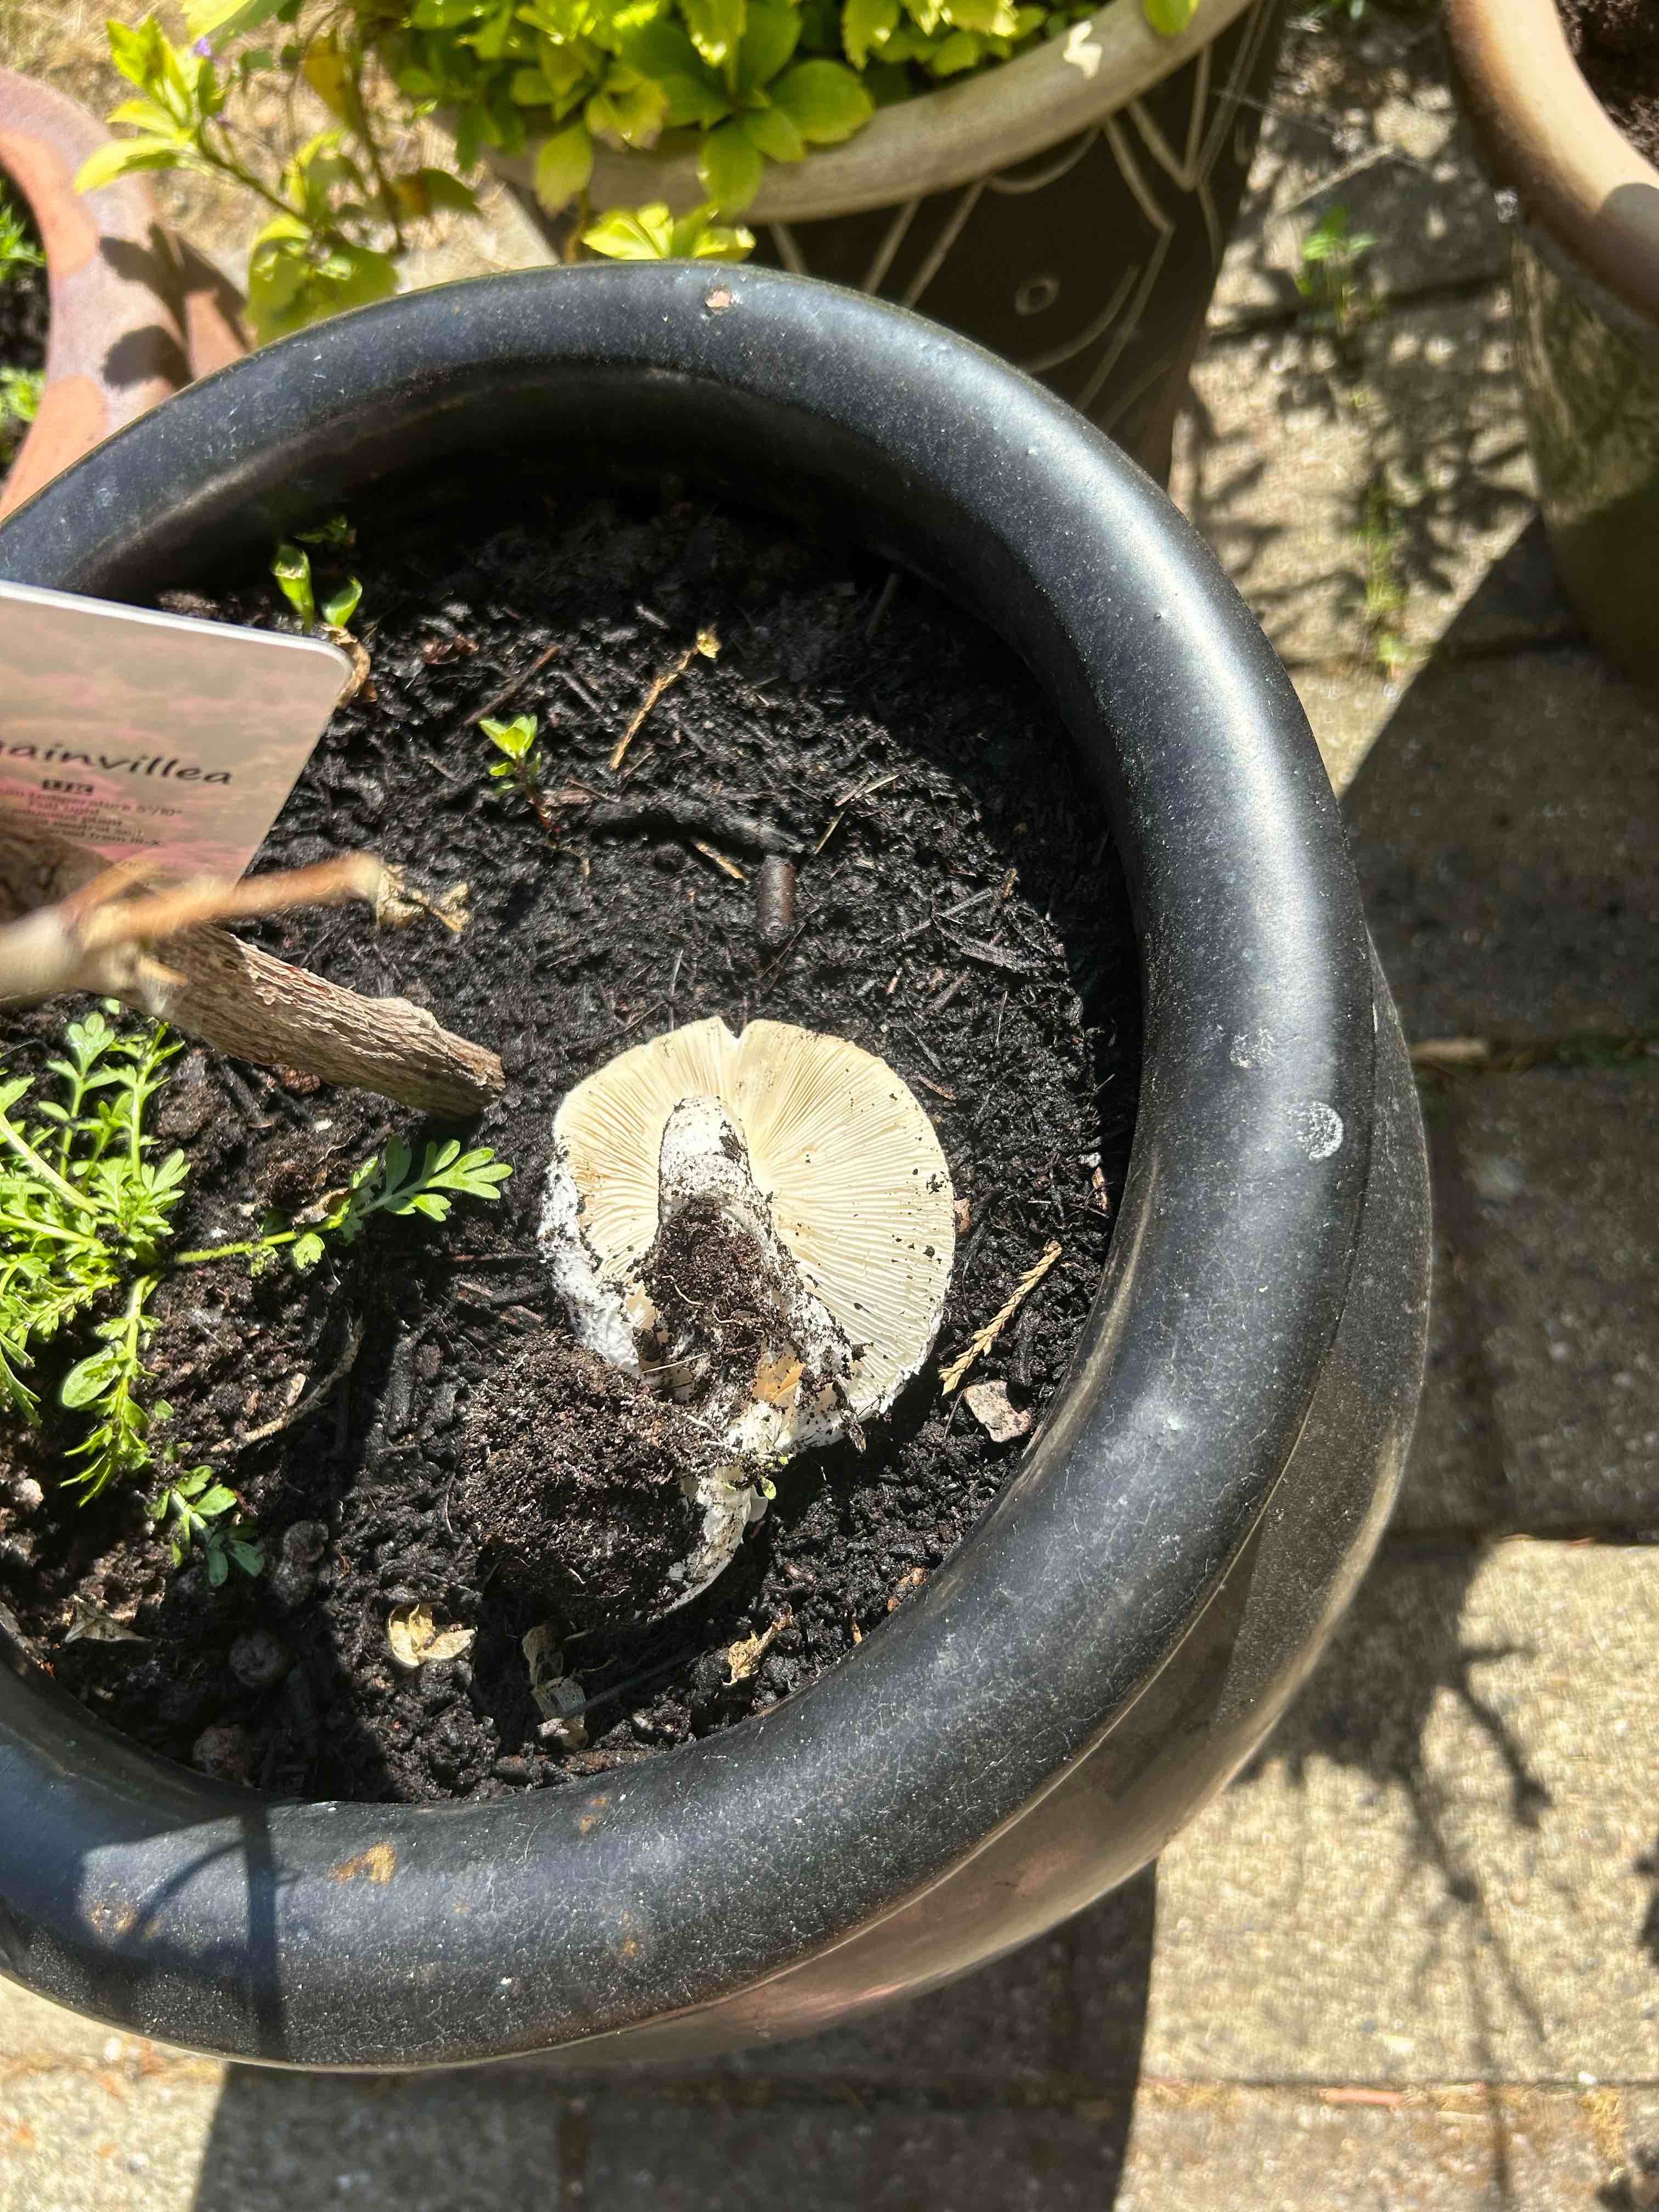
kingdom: Fungi
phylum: Basidiomycota
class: Agaricomycetes
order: Agaricales
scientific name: Agaricales
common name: champignonordenen
